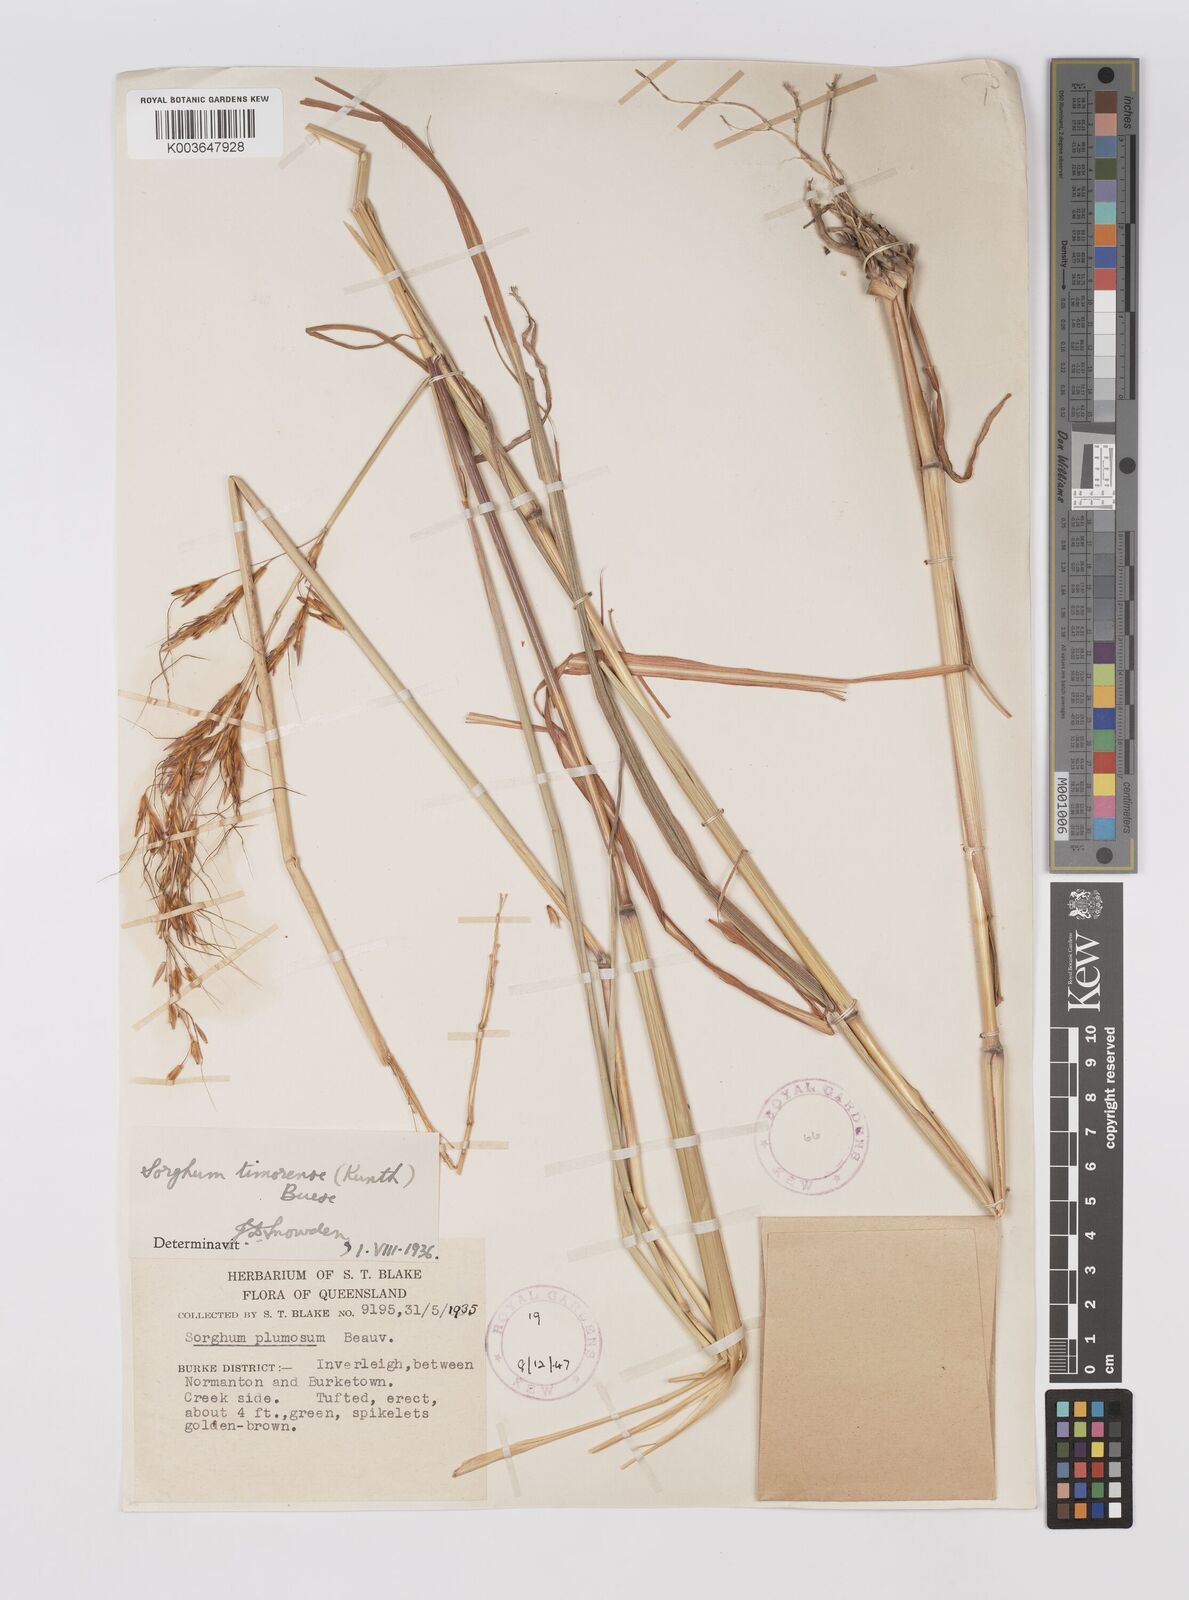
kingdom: Plantae
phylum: Tracheophyta
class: Liliopsida
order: Poales
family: Poaceae
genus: Sarga
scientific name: Sarga timorensis
